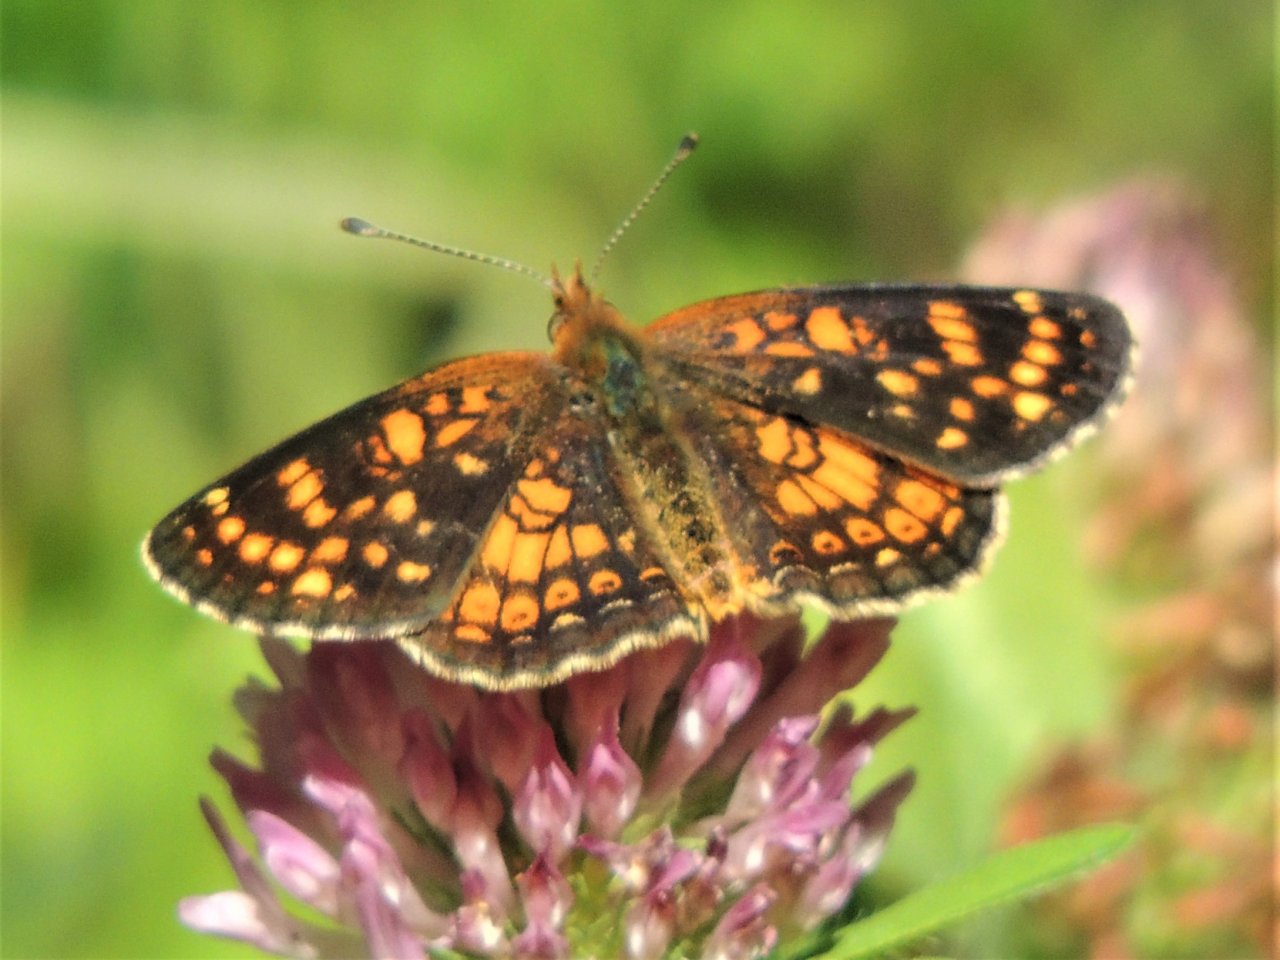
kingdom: Animalia
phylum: Arthropoda
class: Insecta
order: Lepidoptera
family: Nymphalidae
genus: Phyciodes
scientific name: Phyciodes tharos
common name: Field Crescent
